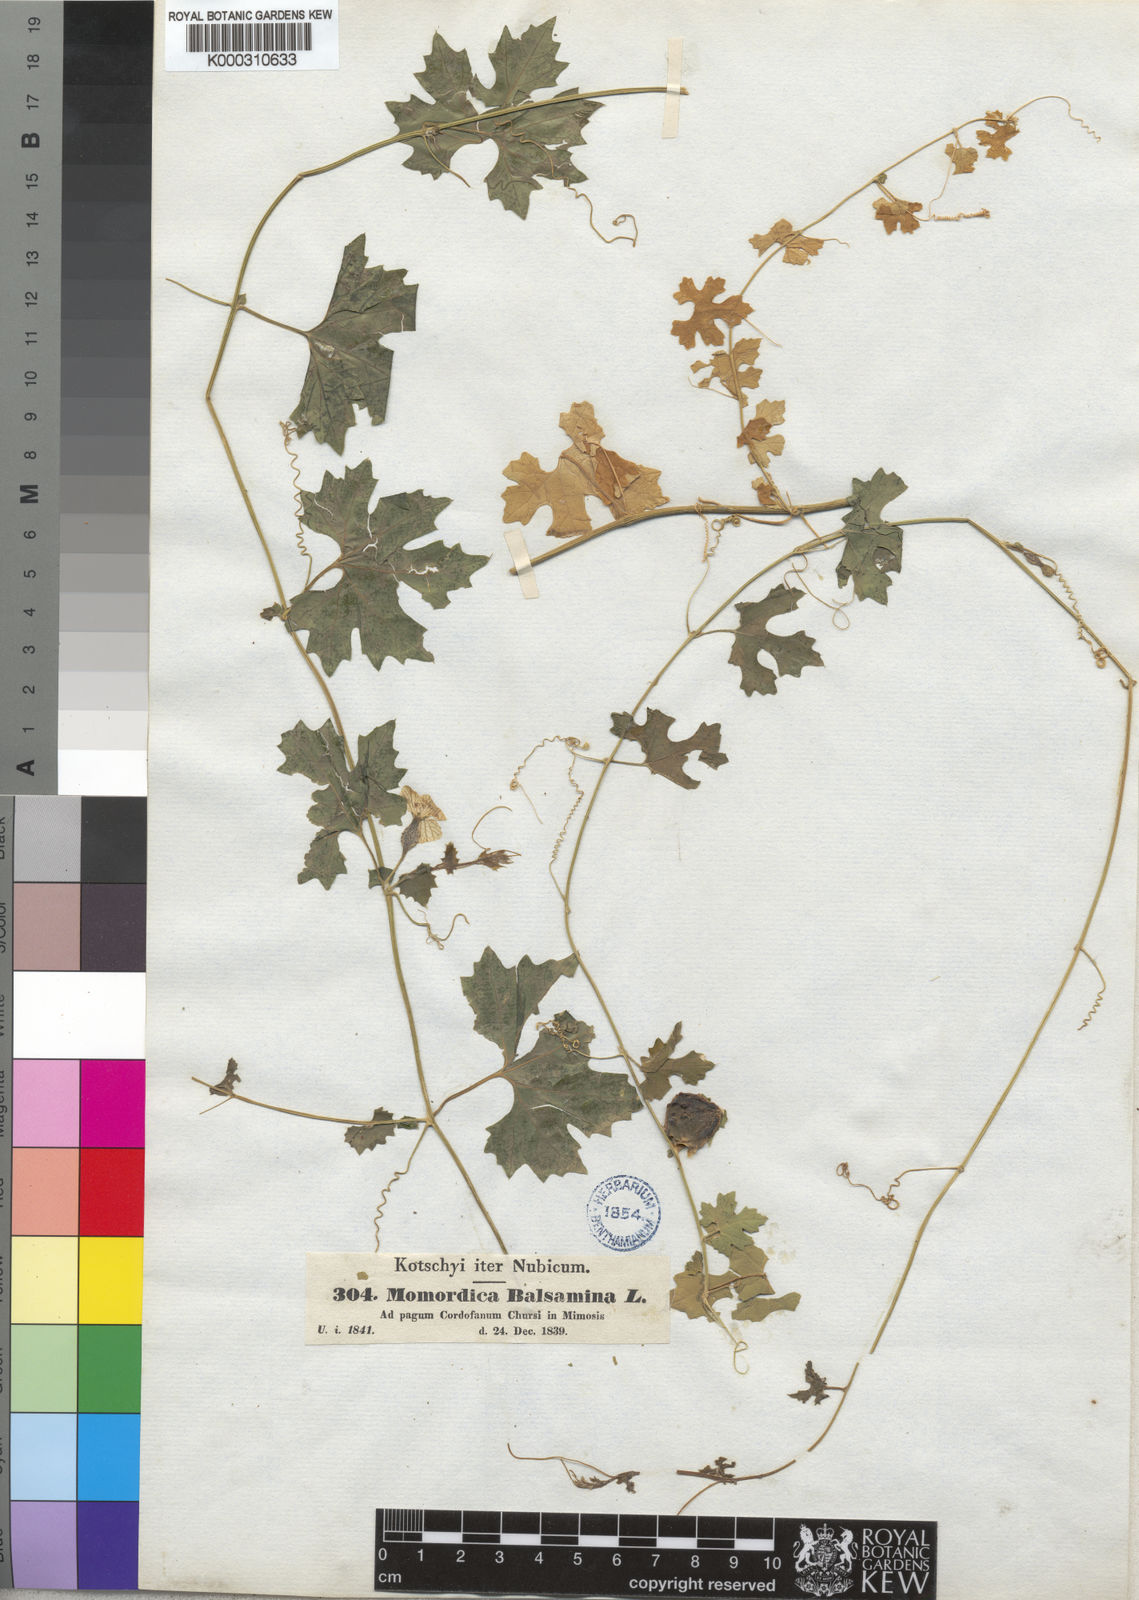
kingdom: Plantae
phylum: Tracheophyta
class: Magnoliopsida
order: Cucurbitales
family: Cucurbitaceae
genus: Momordica
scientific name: Momordica balsamina
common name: Southern balsampear
